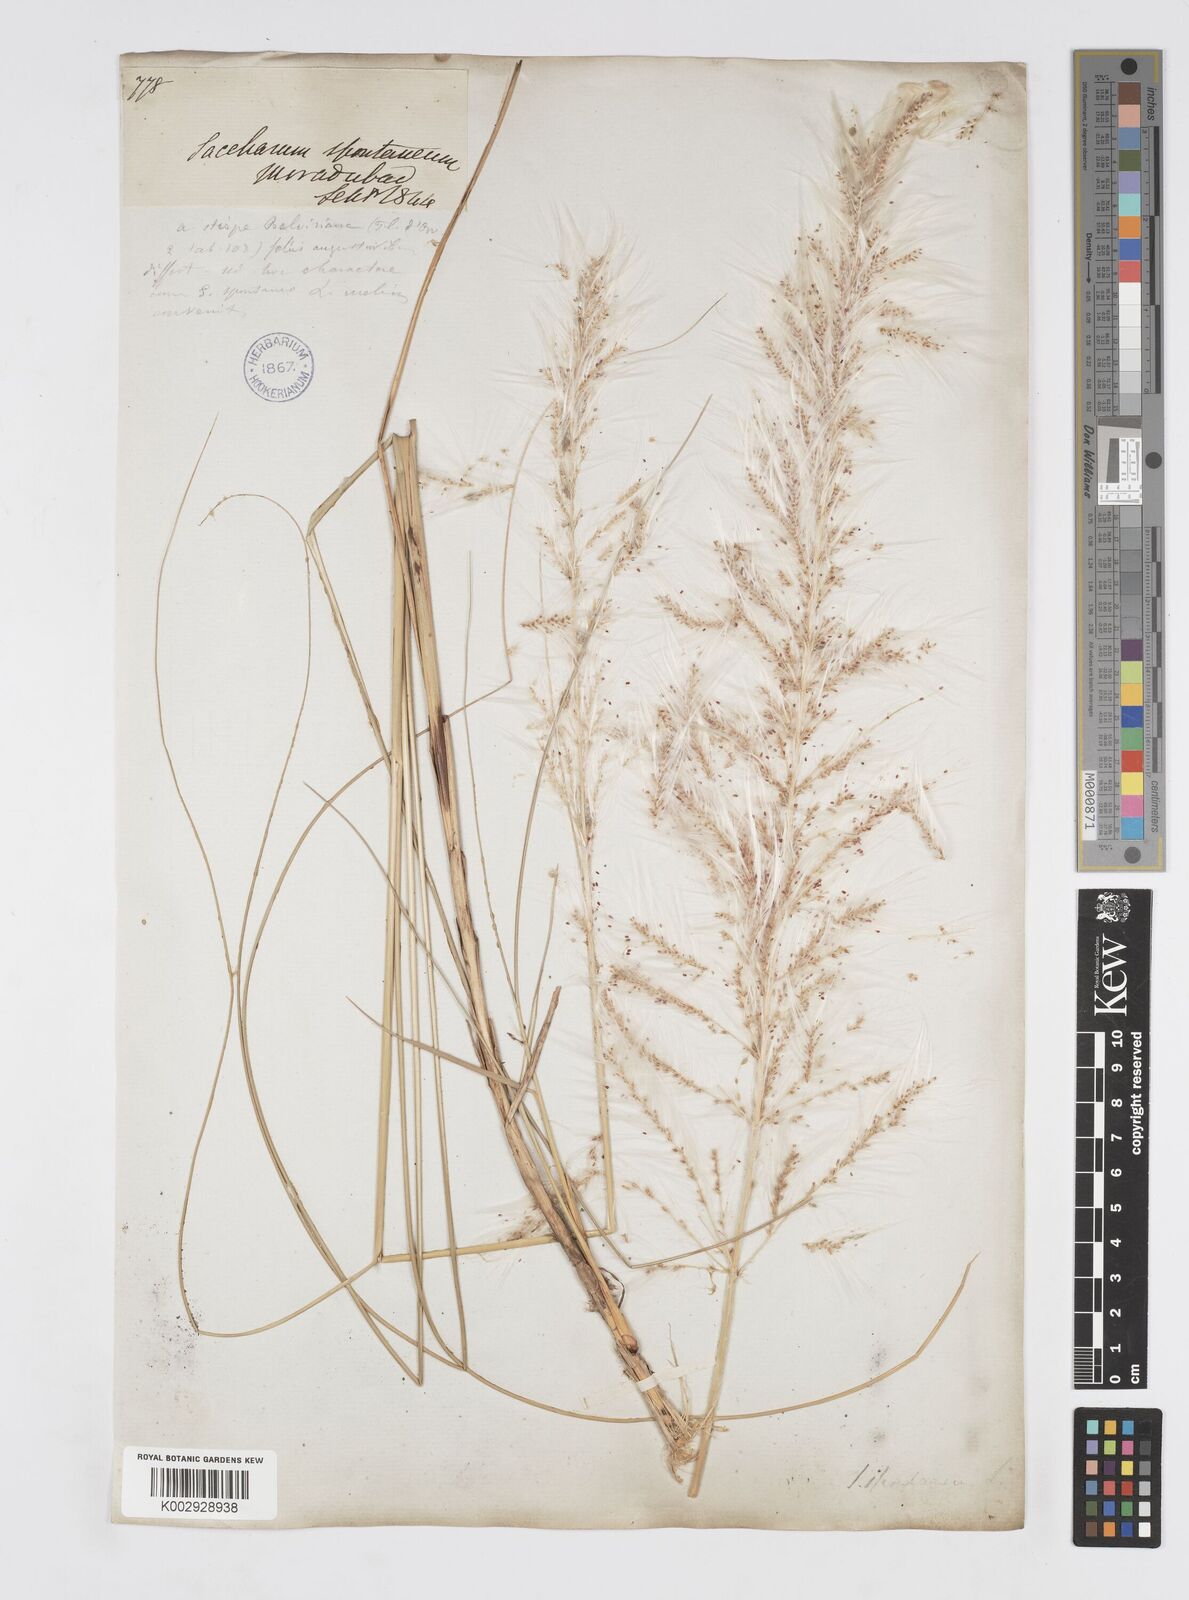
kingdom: Plantae
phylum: Tracheophyta
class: Liliopsida
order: Poales
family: Poaceae
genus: Saccharum
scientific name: Saccharum spontaneum
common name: Wild sugarcane
